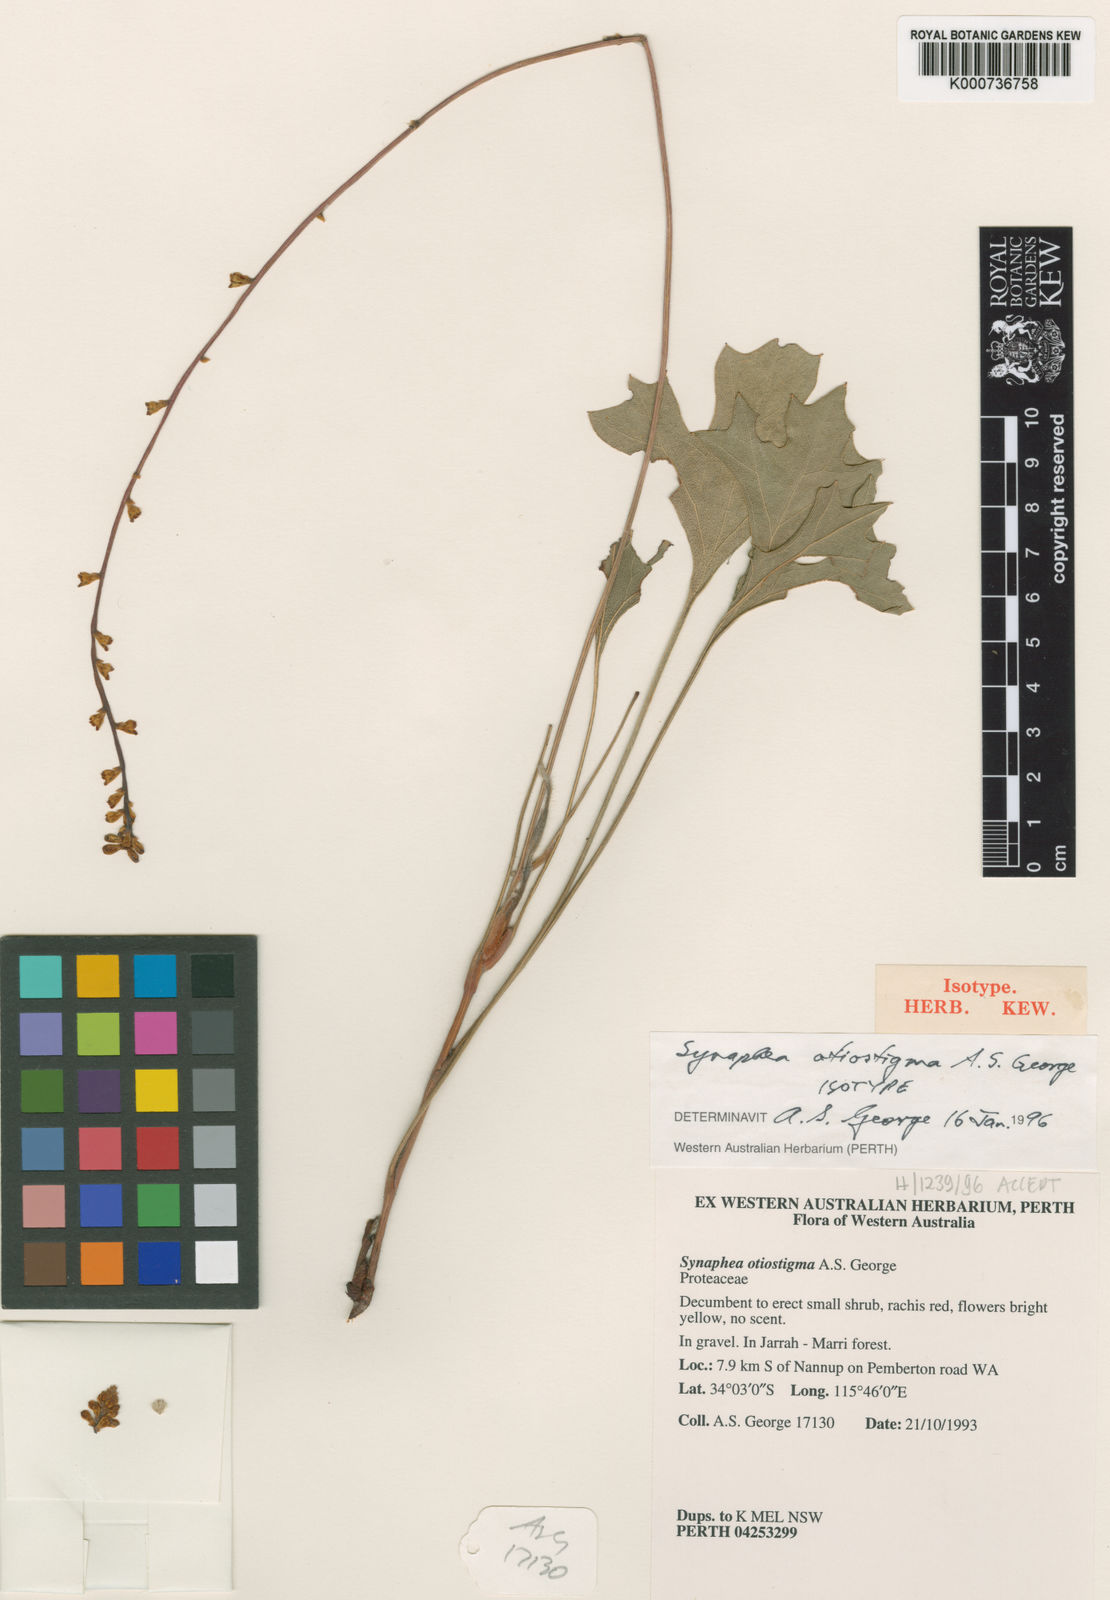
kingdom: Plantae
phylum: Tracheophyta
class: Magnoliopsida
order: Proteales
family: Proteaceae
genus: Synaphea
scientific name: Synaphea otiostigma
